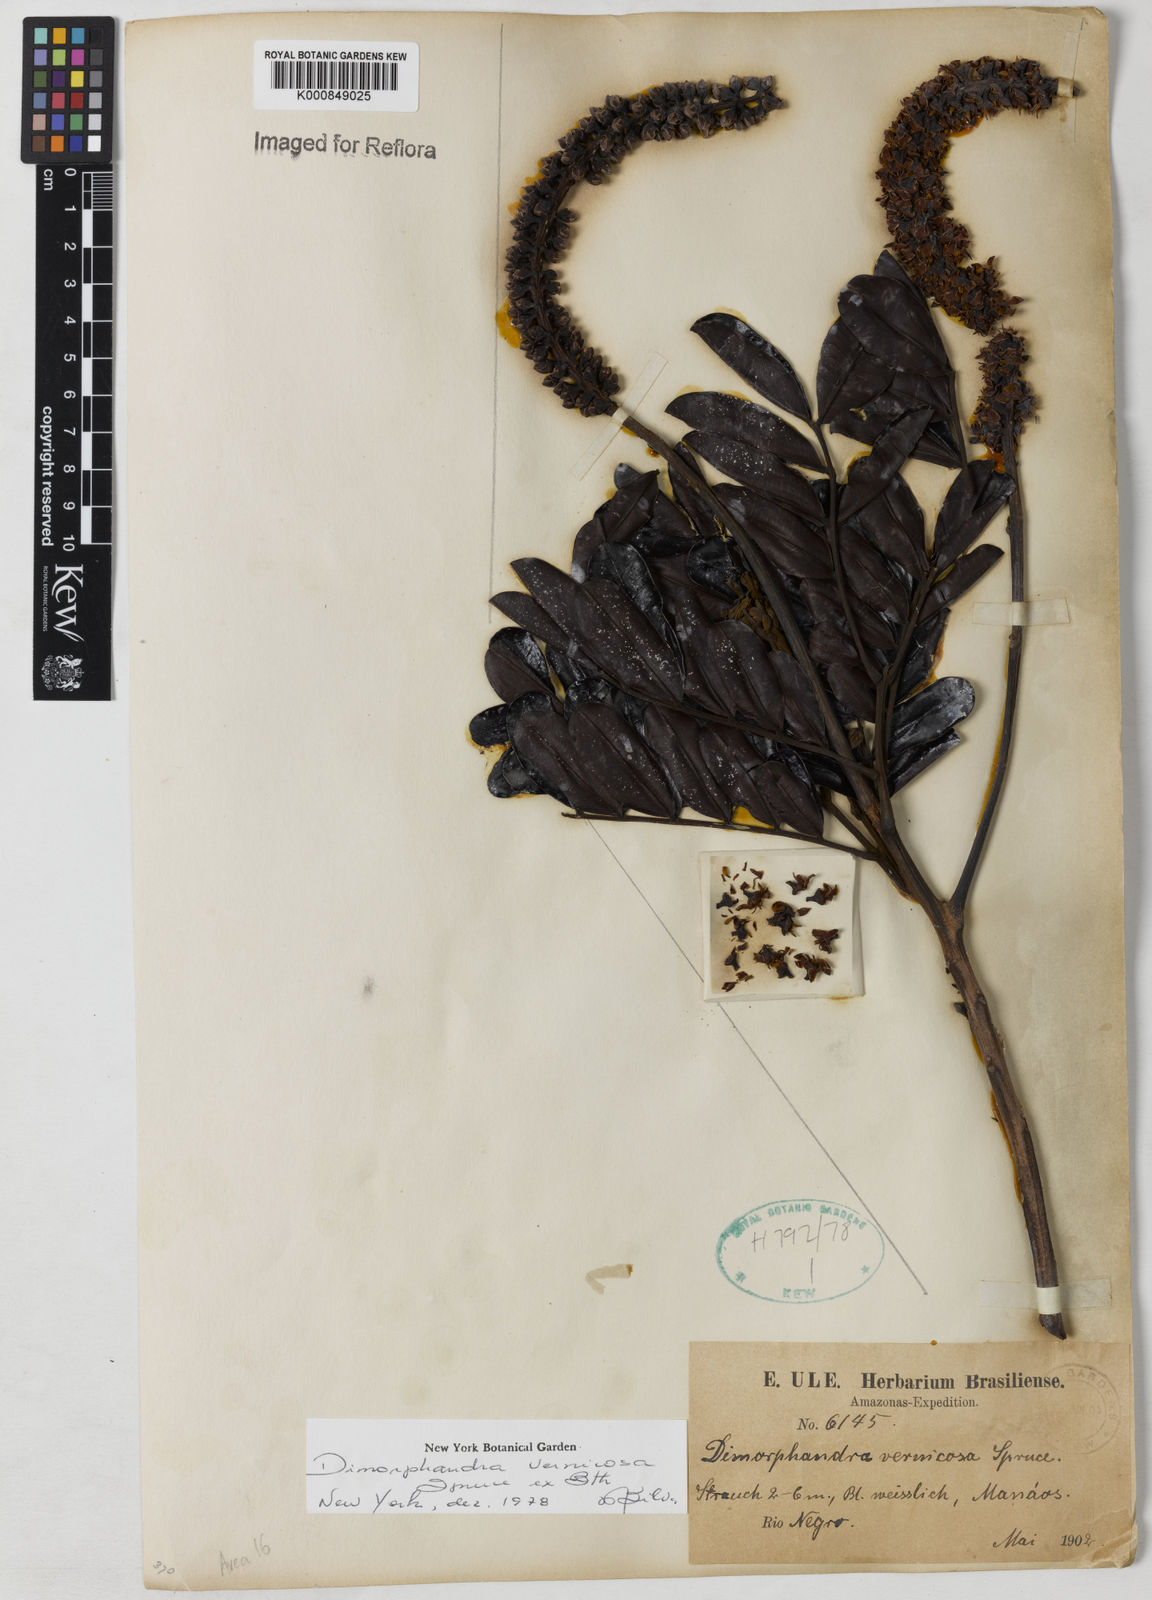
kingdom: Plantae
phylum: Tracheophyta
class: Magnoliopsida
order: Fabales
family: Fabaceae
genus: Dimorphandra
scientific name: Dimorphandra vernicosa
